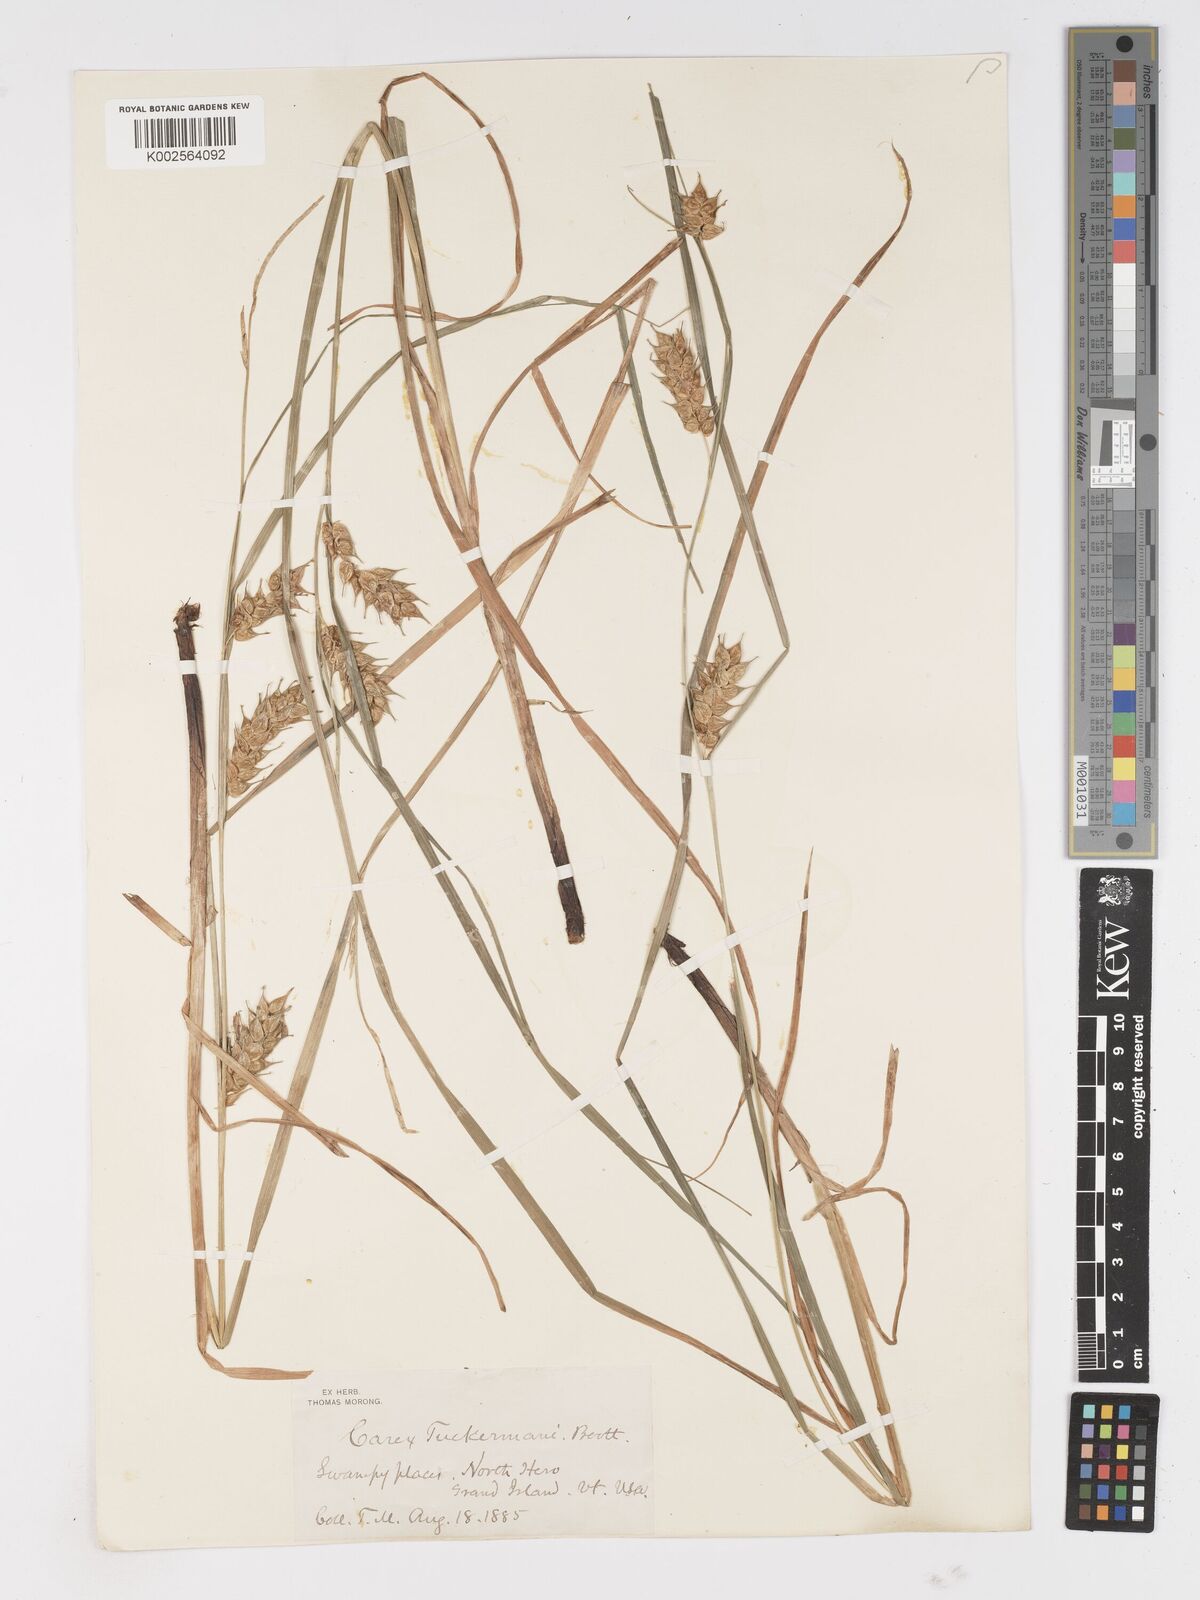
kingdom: Plantae
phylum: Tracheophyta
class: Liliopsida
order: Poales
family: Cyperaceae
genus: Carex
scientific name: Carex tuckermanii
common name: Tuckerman's sedge
